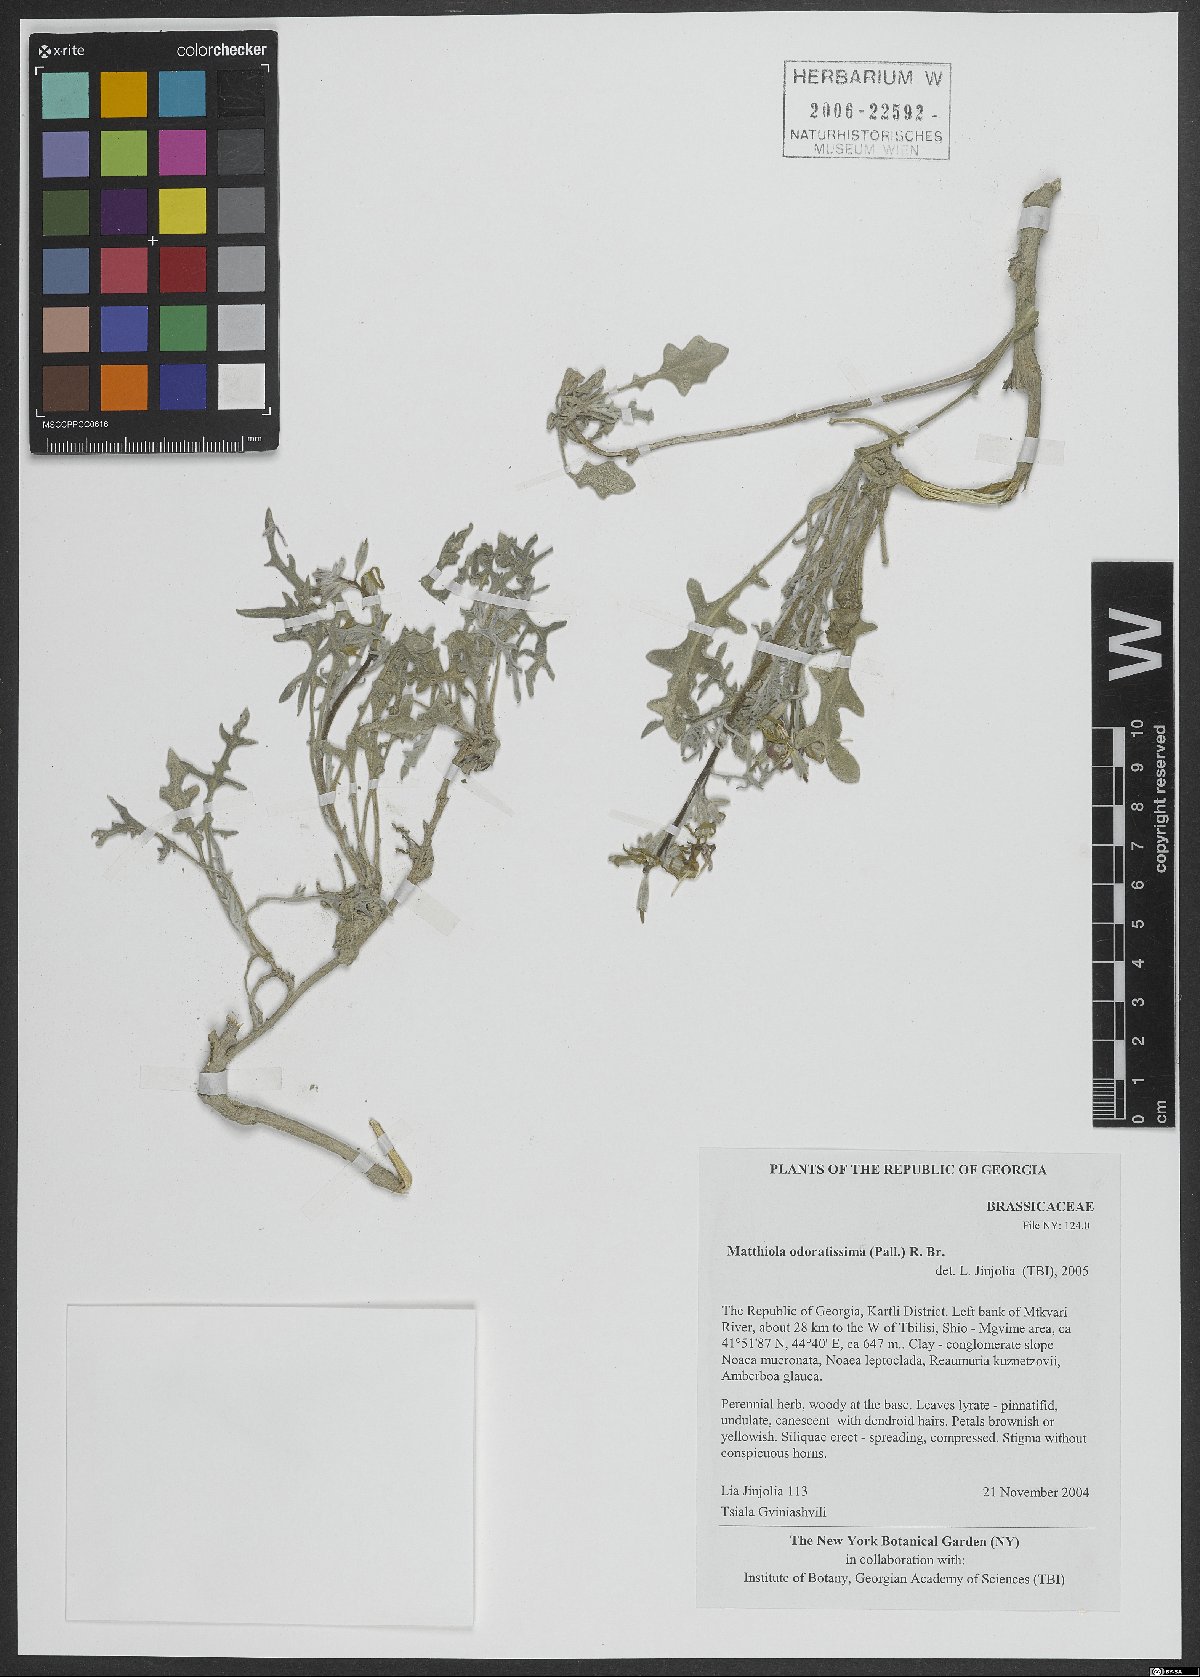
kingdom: Plantae
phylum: Tracheophyta
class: Magnoliopsida
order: Brassicales
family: Brassicaceae
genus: Matthiola
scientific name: Matthiola odoratissima
